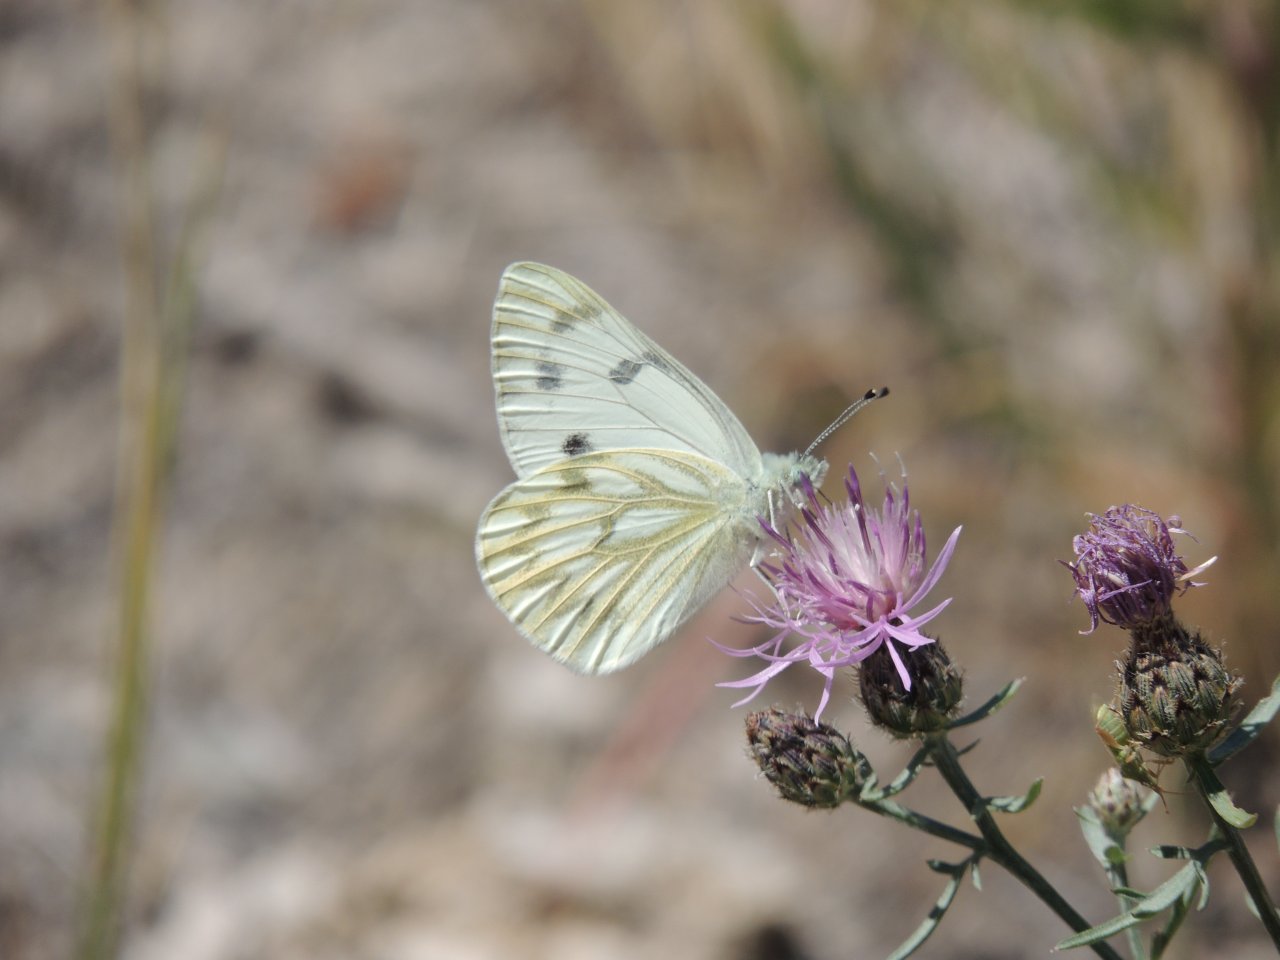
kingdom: Animalia
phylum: Arthropoda
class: Insecta
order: Lepidoptera
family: Pieridae
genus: Pontia
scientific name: Pontia occidentalis
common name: Western White
